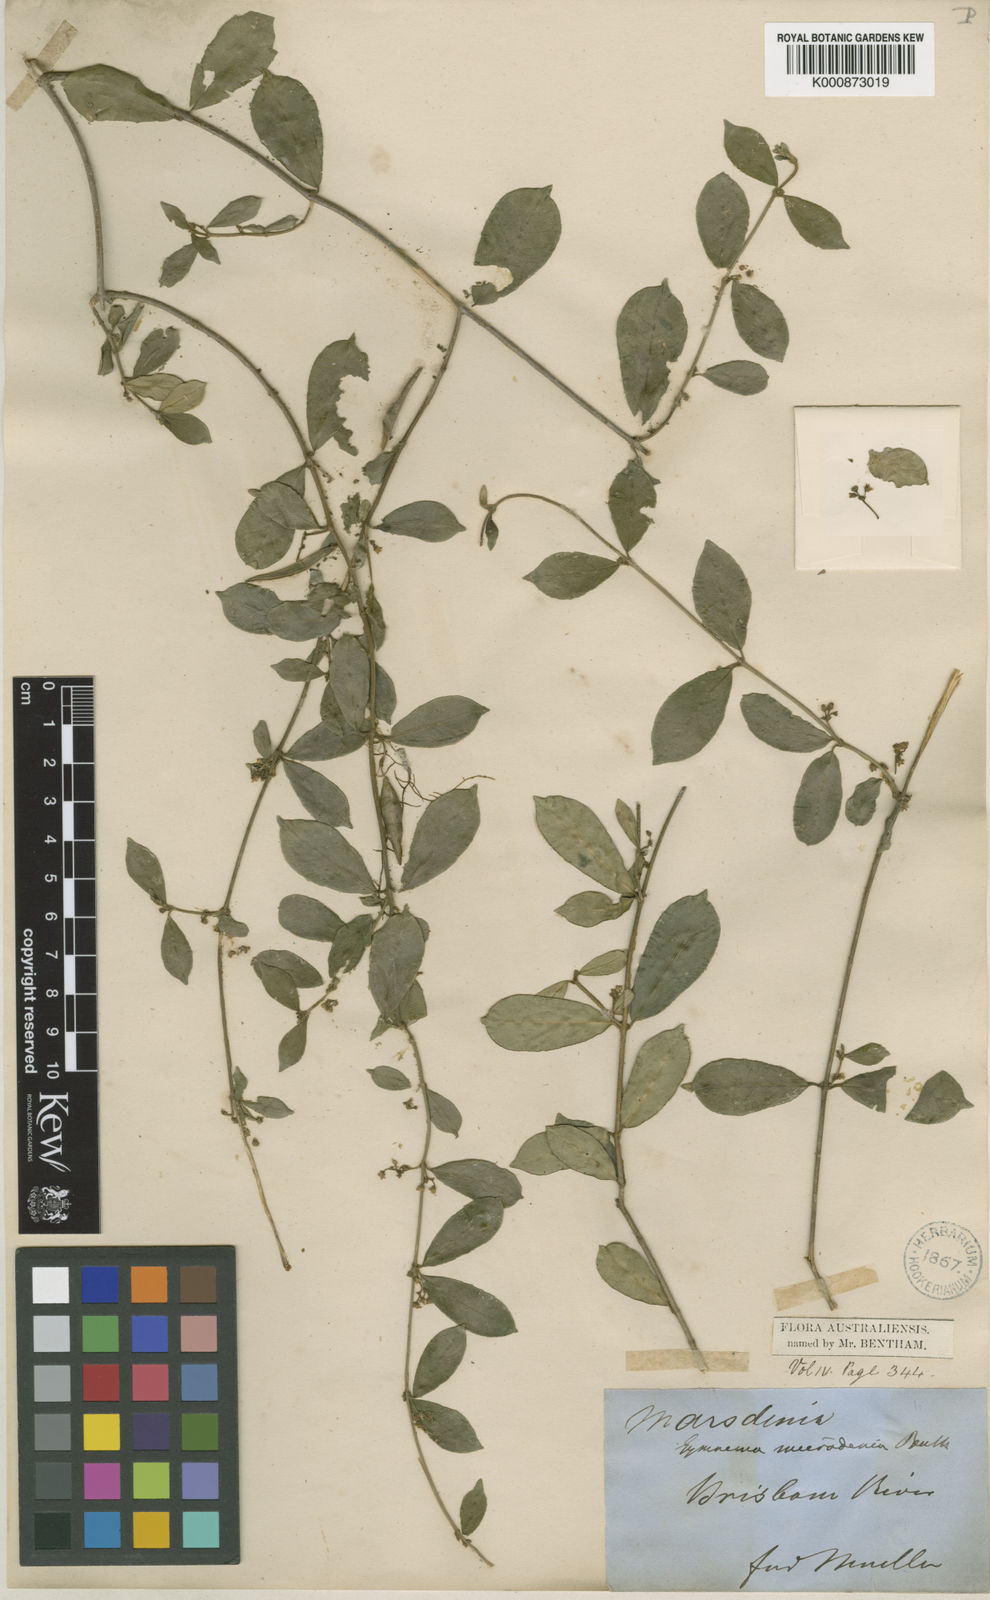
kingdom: Plantae
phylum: Tracheophyta
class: Magnoliopsida
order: Gentianales
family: Apocynaceae
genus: Leichhardtia
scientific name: Leichhardtia micradenia
